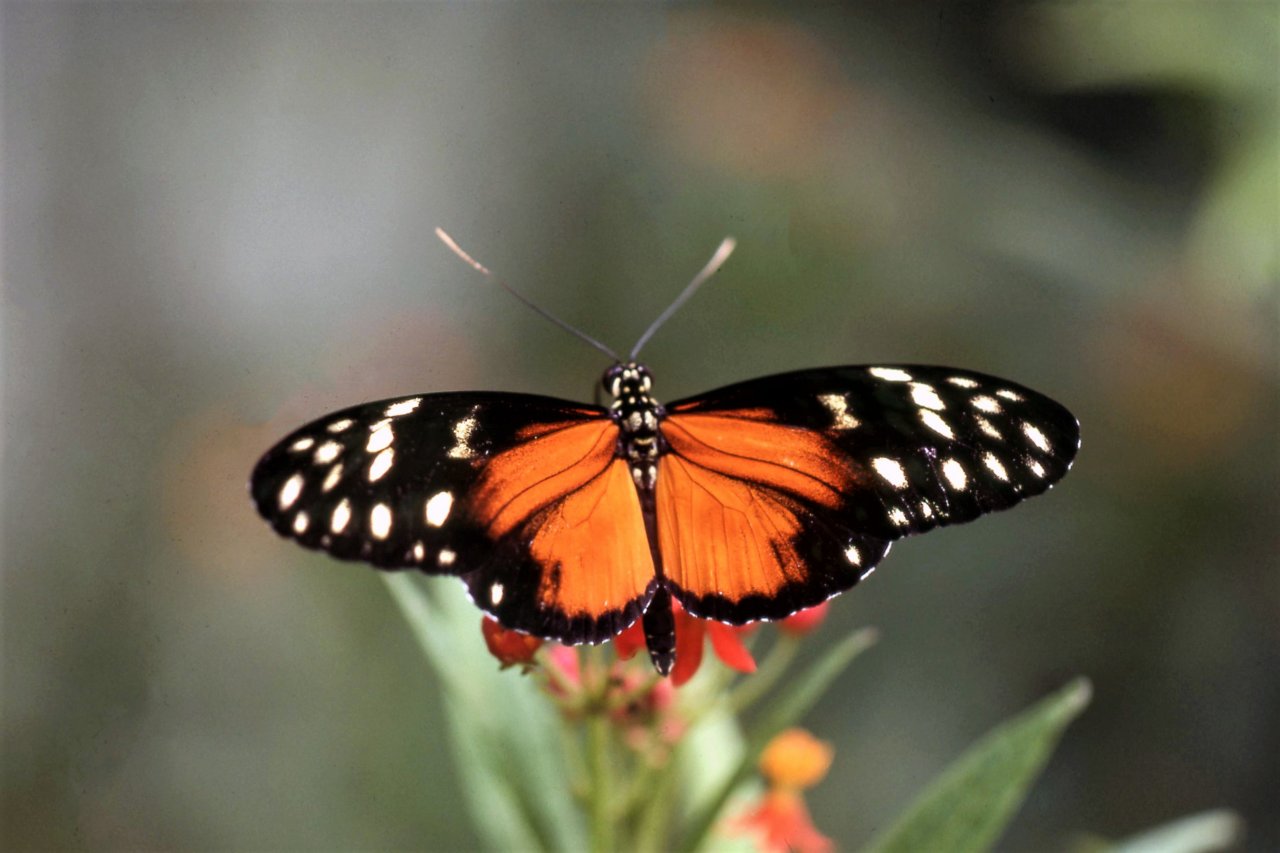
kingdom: Animalia
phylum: Arthropoda
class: Insecta
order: Lepidoptera
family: Nymphalidae
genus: Heliconius
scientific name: Heliconius hecalesia
